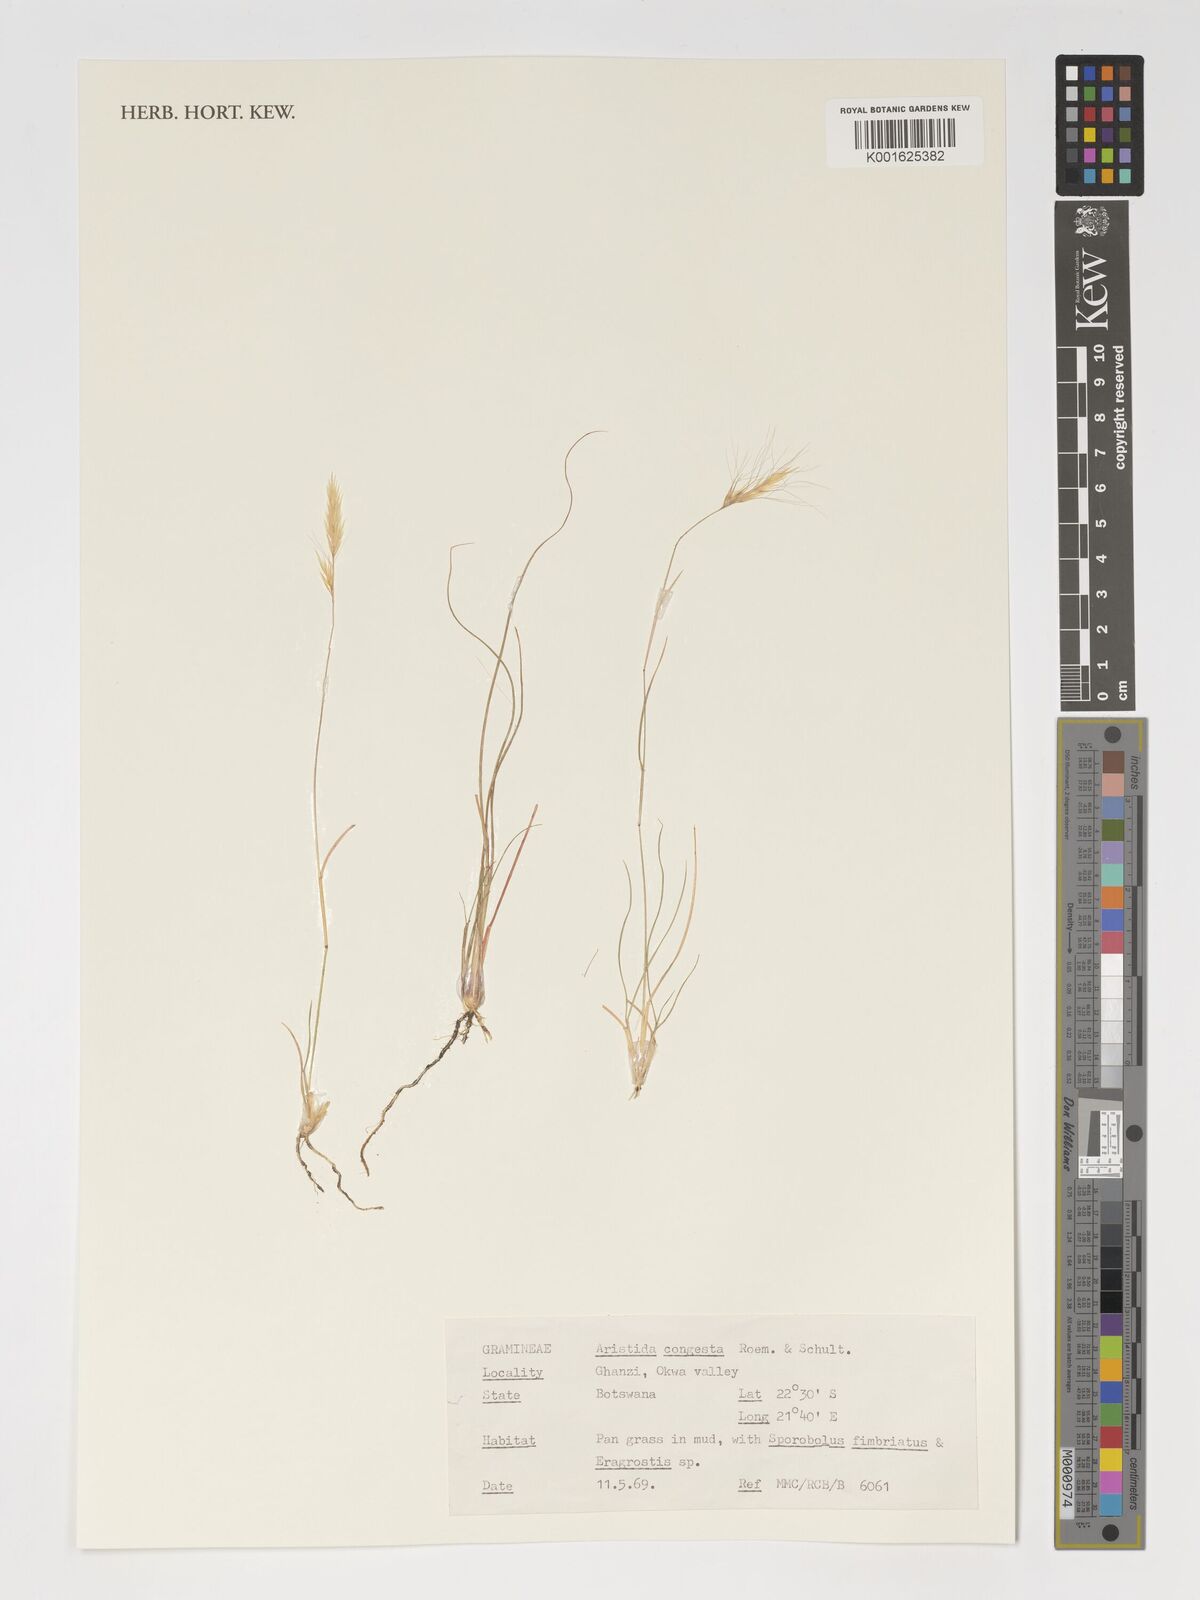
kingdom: Plantae
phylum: Tracheophyta
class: Liliopsida
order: Poales
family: Poaceae
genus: Aristida
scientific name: Aristida congesta
